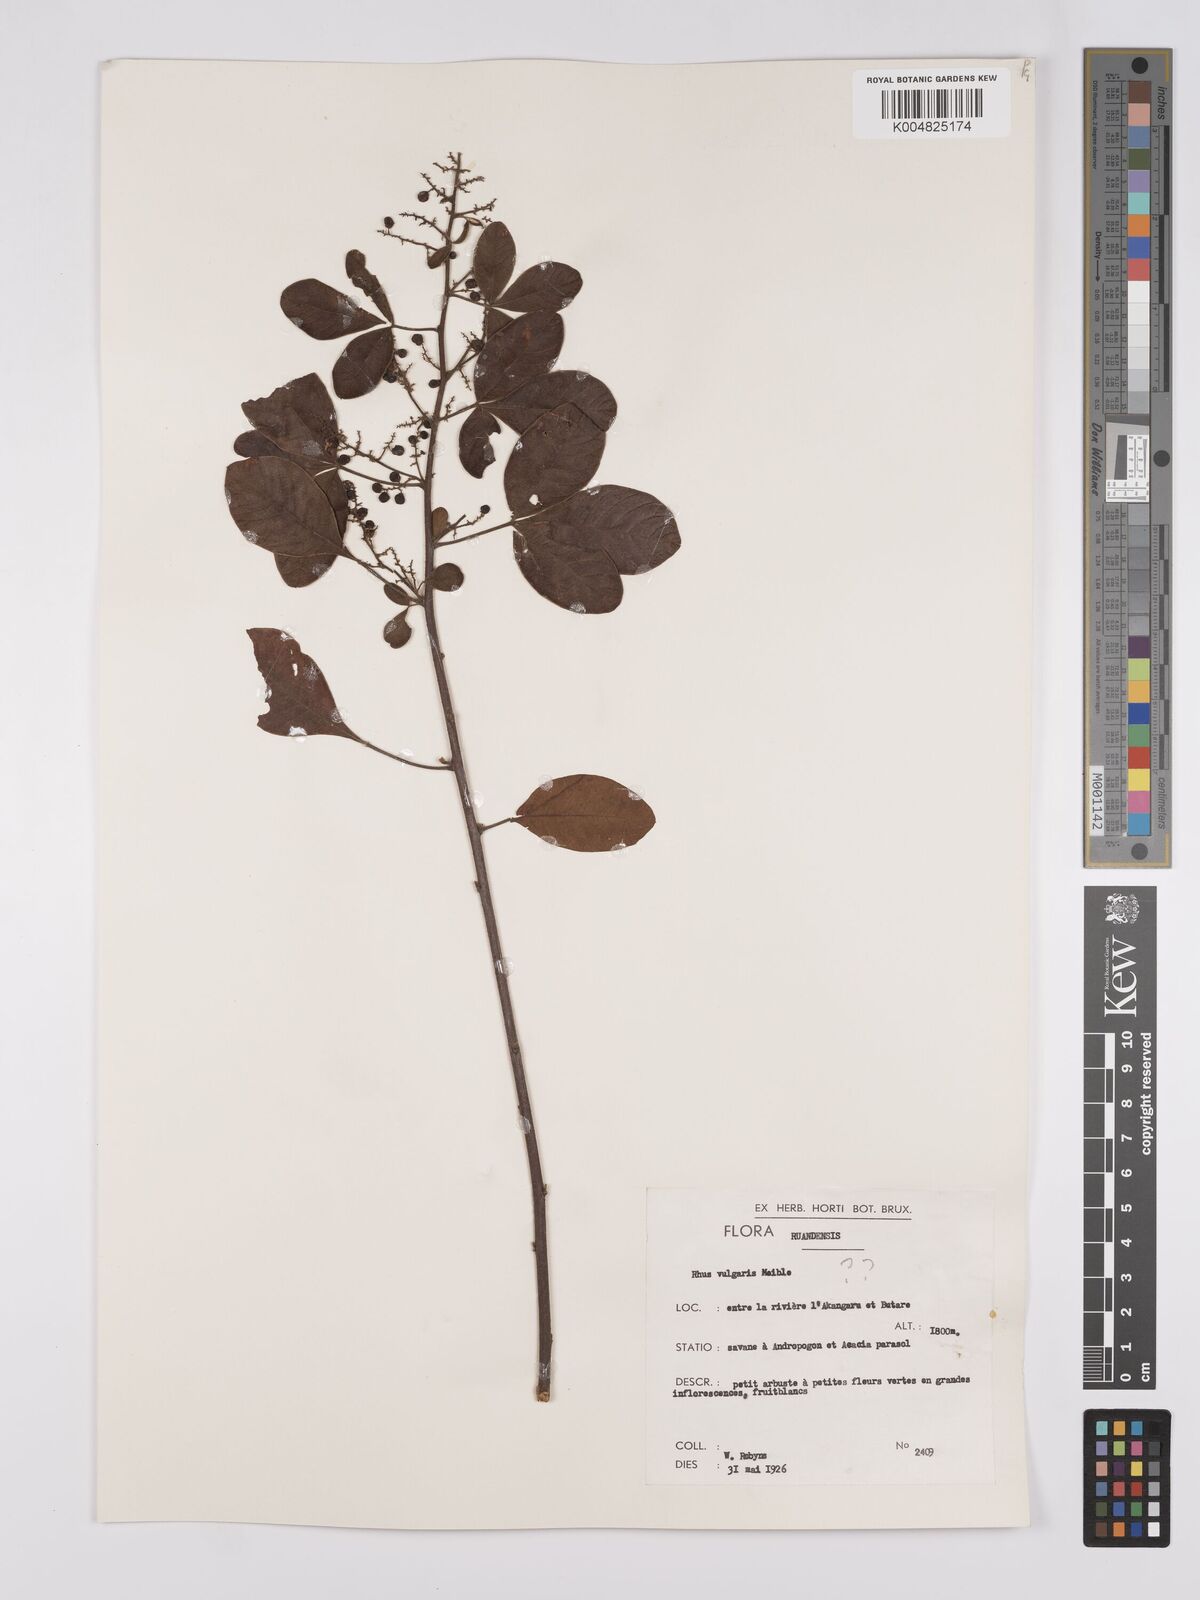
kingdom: Plantae
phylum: Tracheophyta
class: Magnoliopsida
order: Sapindales
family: Anacardiaceae
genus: Searsia
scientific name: Searsia longipes
